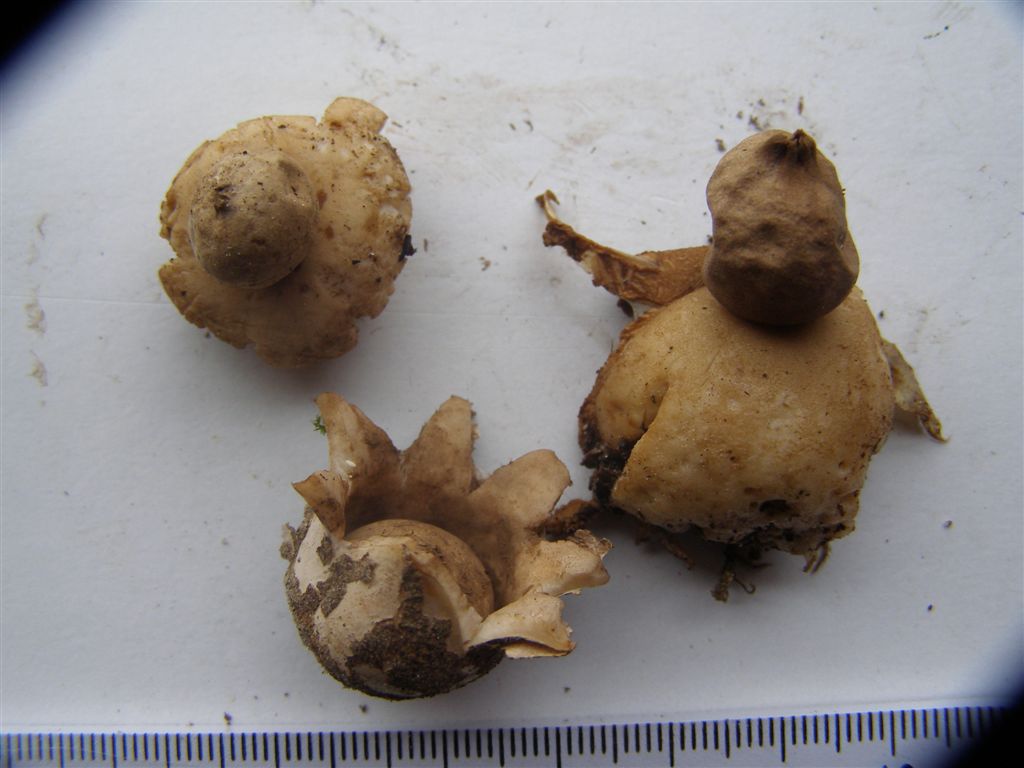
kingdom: Fungi
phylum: Basidiomycota
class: Agaricomycetes
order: Geastrales
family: Geastraceae
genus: Geastrum
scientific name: Geastrum fimbriatum
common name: frynset stjernebold
